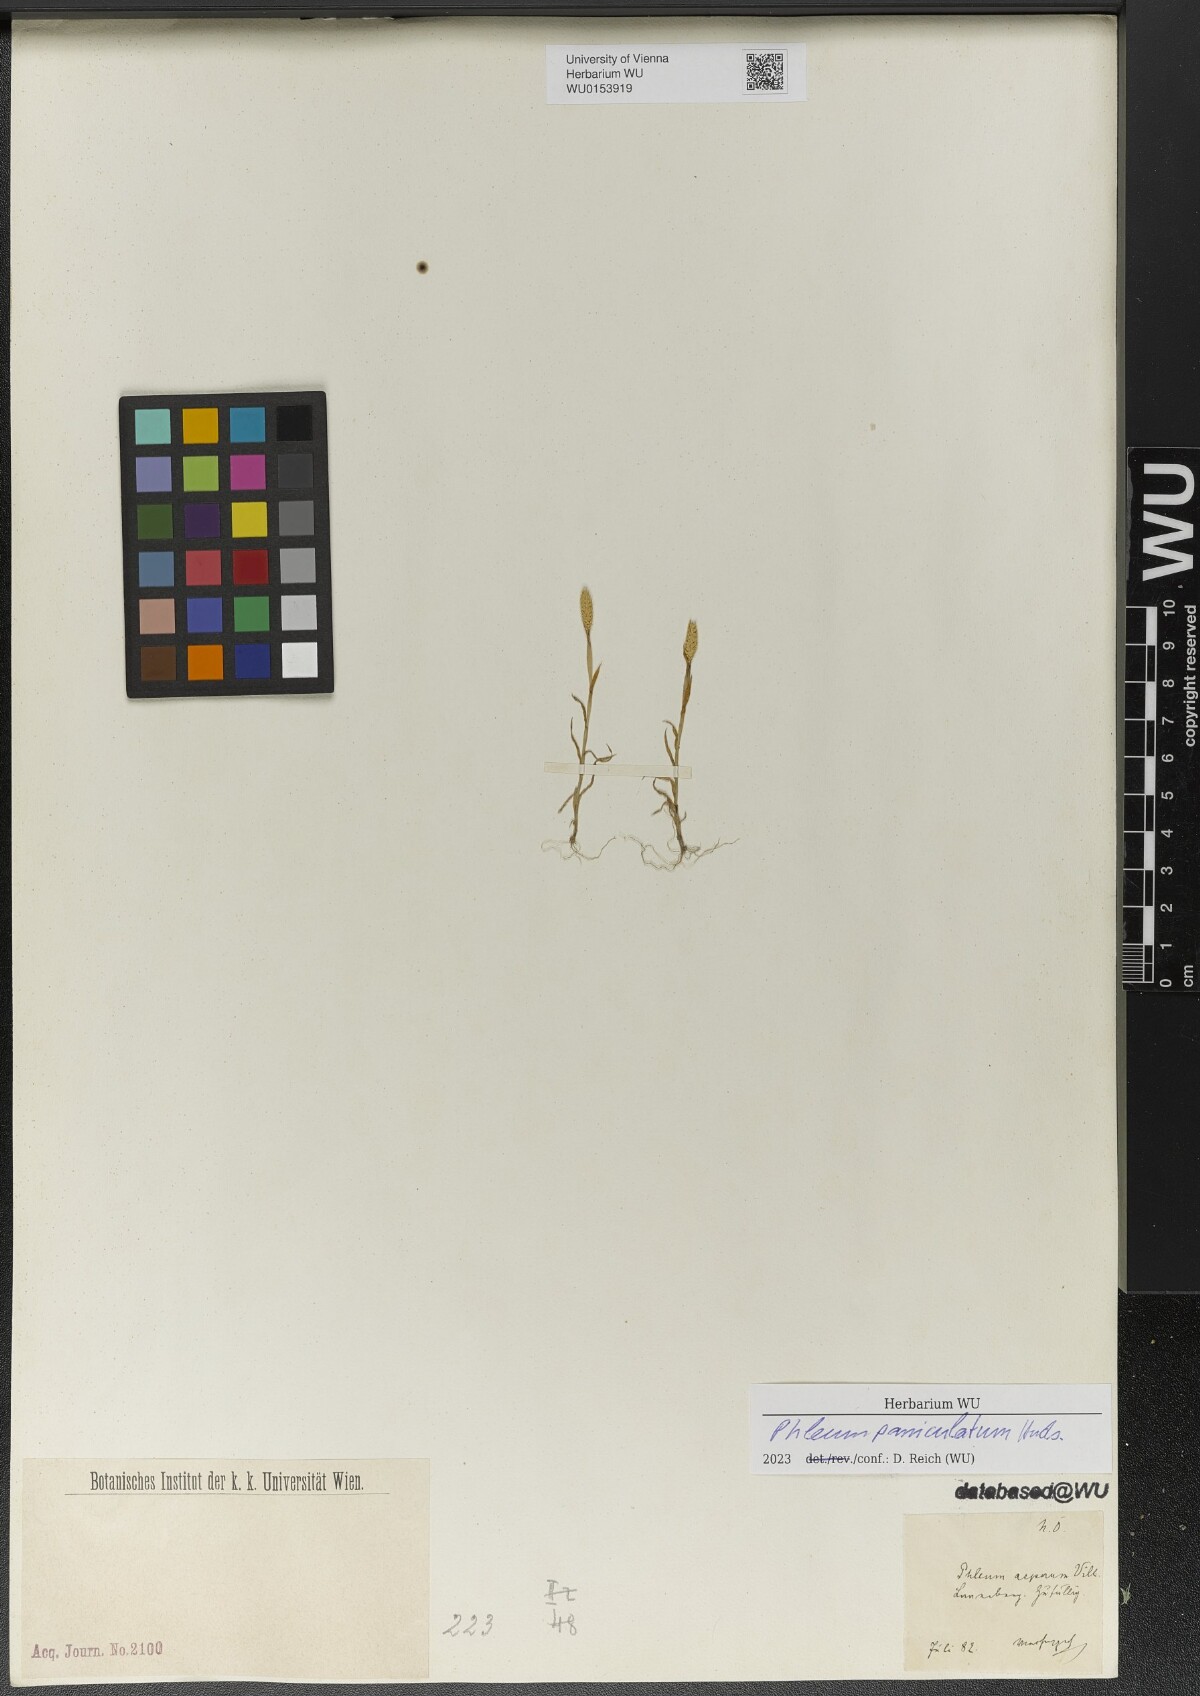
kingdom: Plantae
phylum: Tracheophyta
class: Liliopsida
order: Poales
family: Poaceae
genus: Phleum
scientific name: Phleum paniculatum
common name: British timothy
